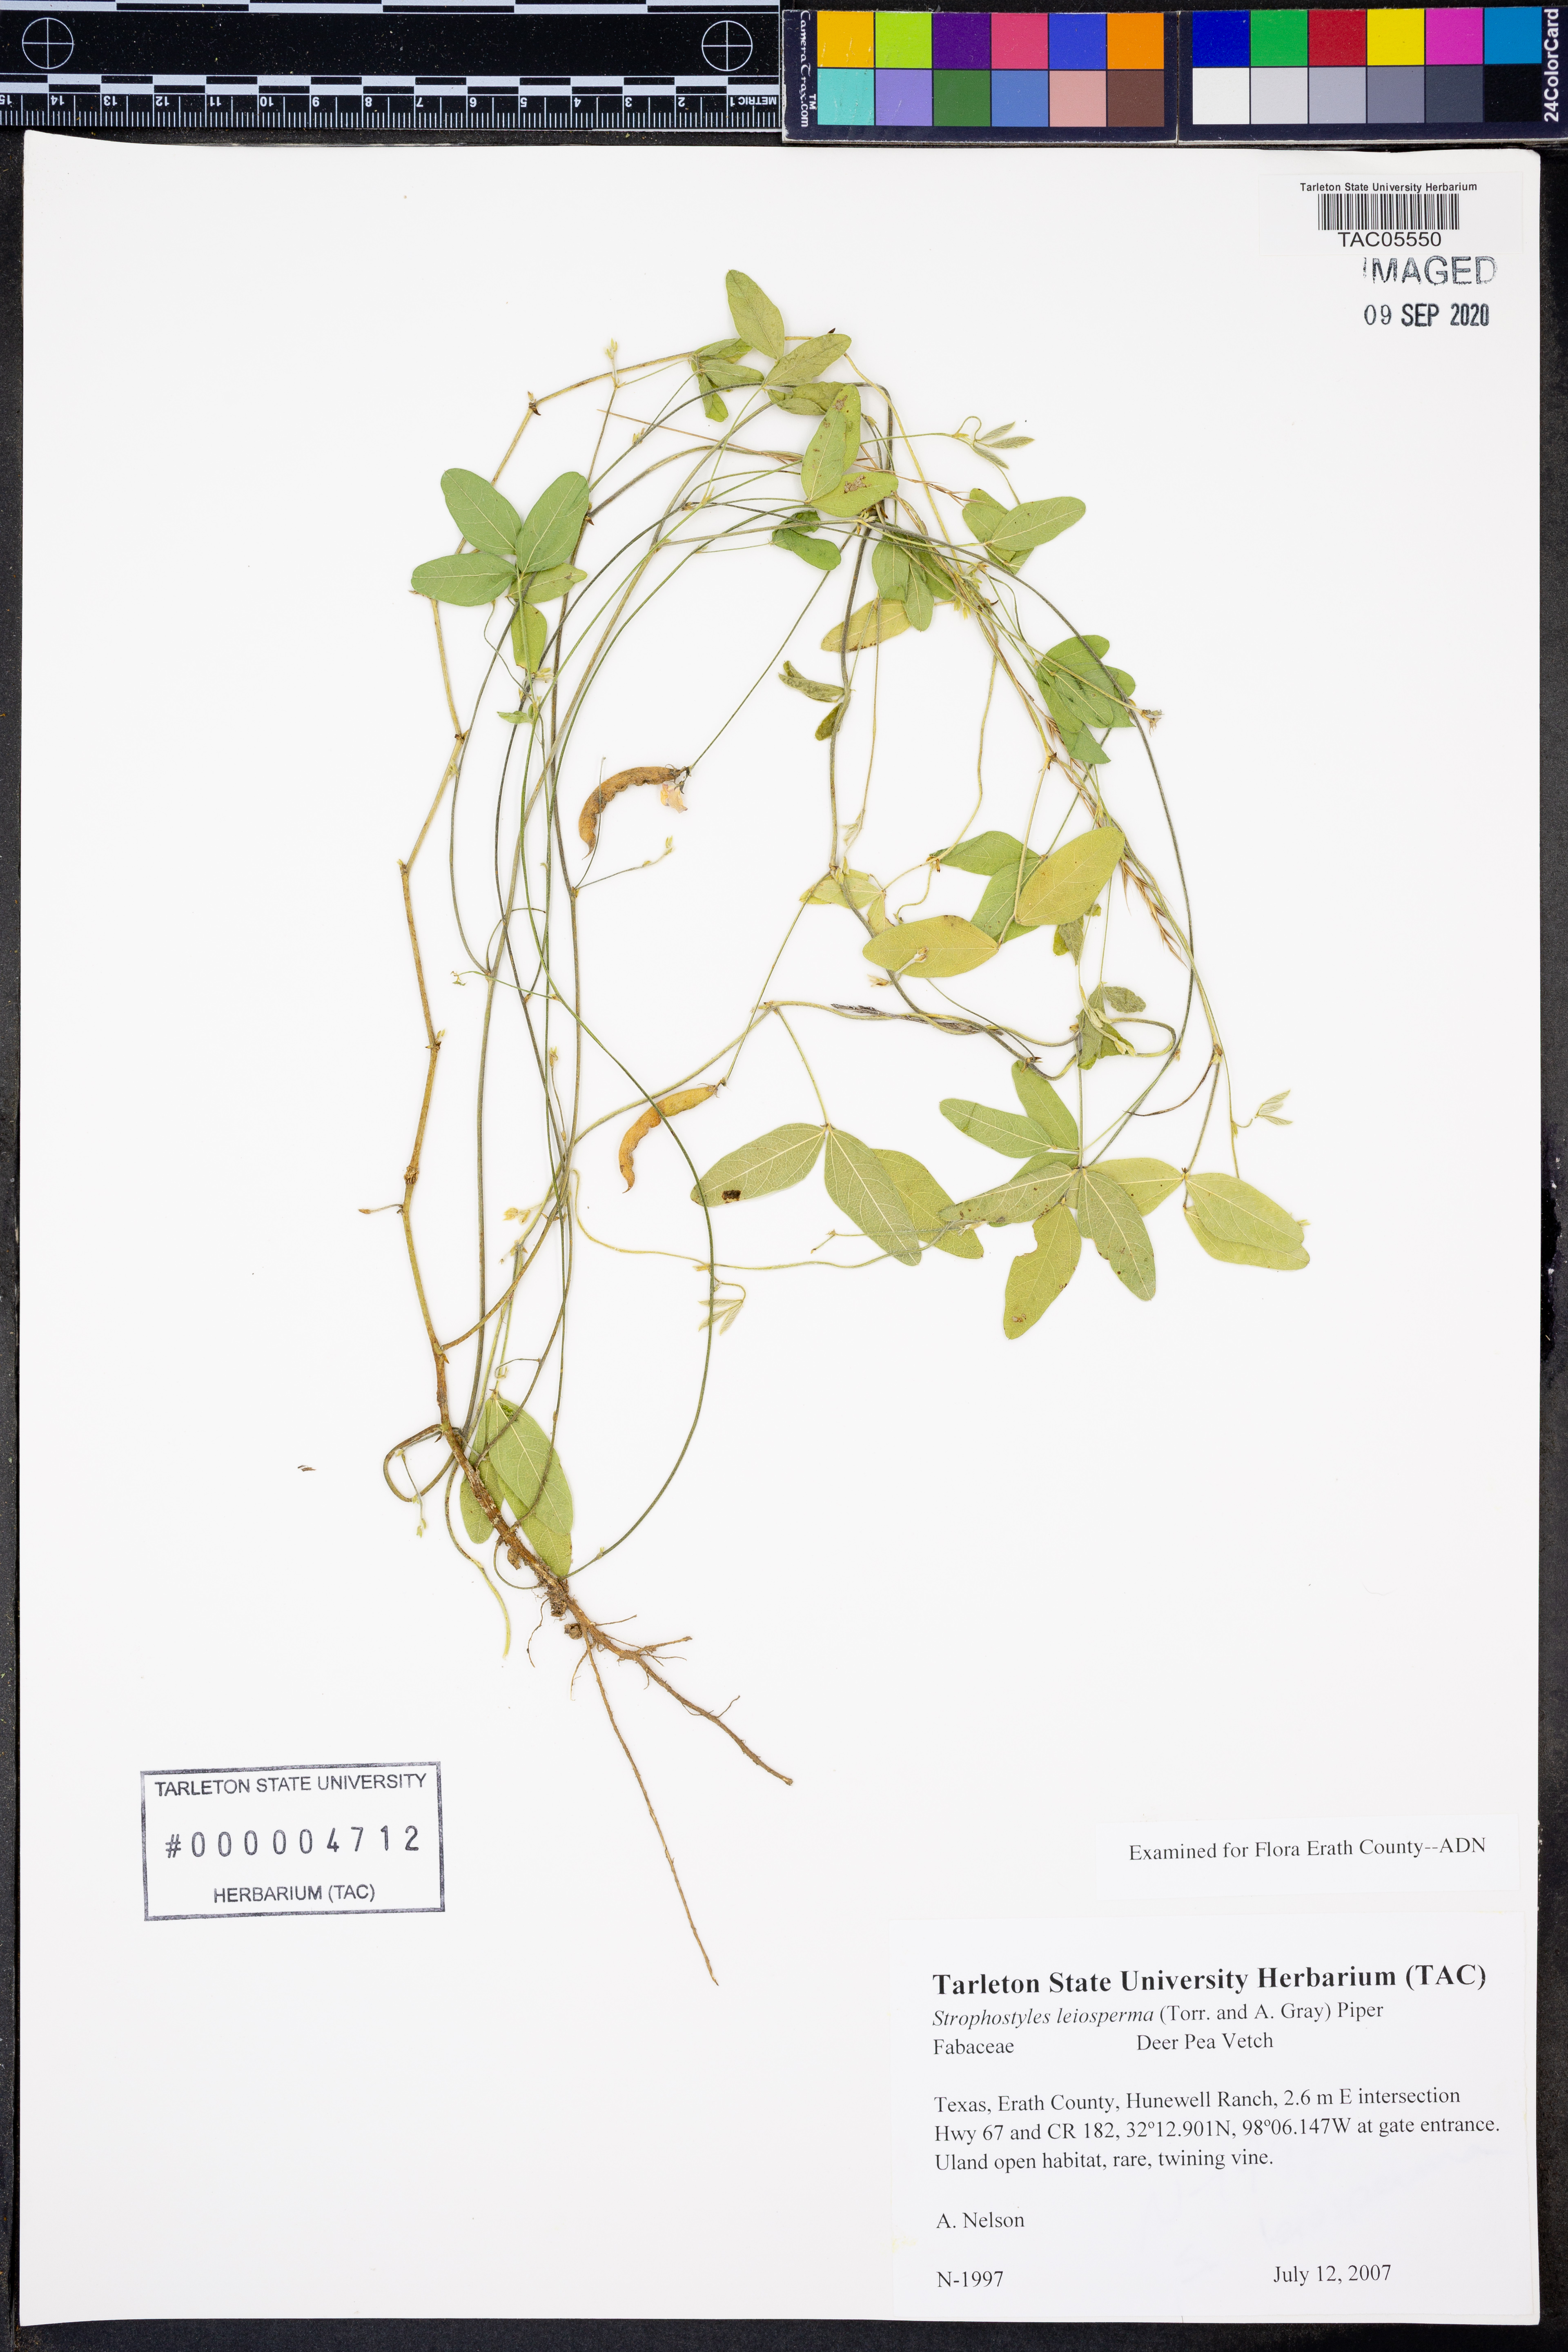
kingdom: Plantae
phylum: Tracheophyta
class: Magnoliopsida
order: Fabales
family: Fabaceae
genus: Strophostyles
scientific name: Strophostyles leiosperma
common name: Smooth-seed wild bean
